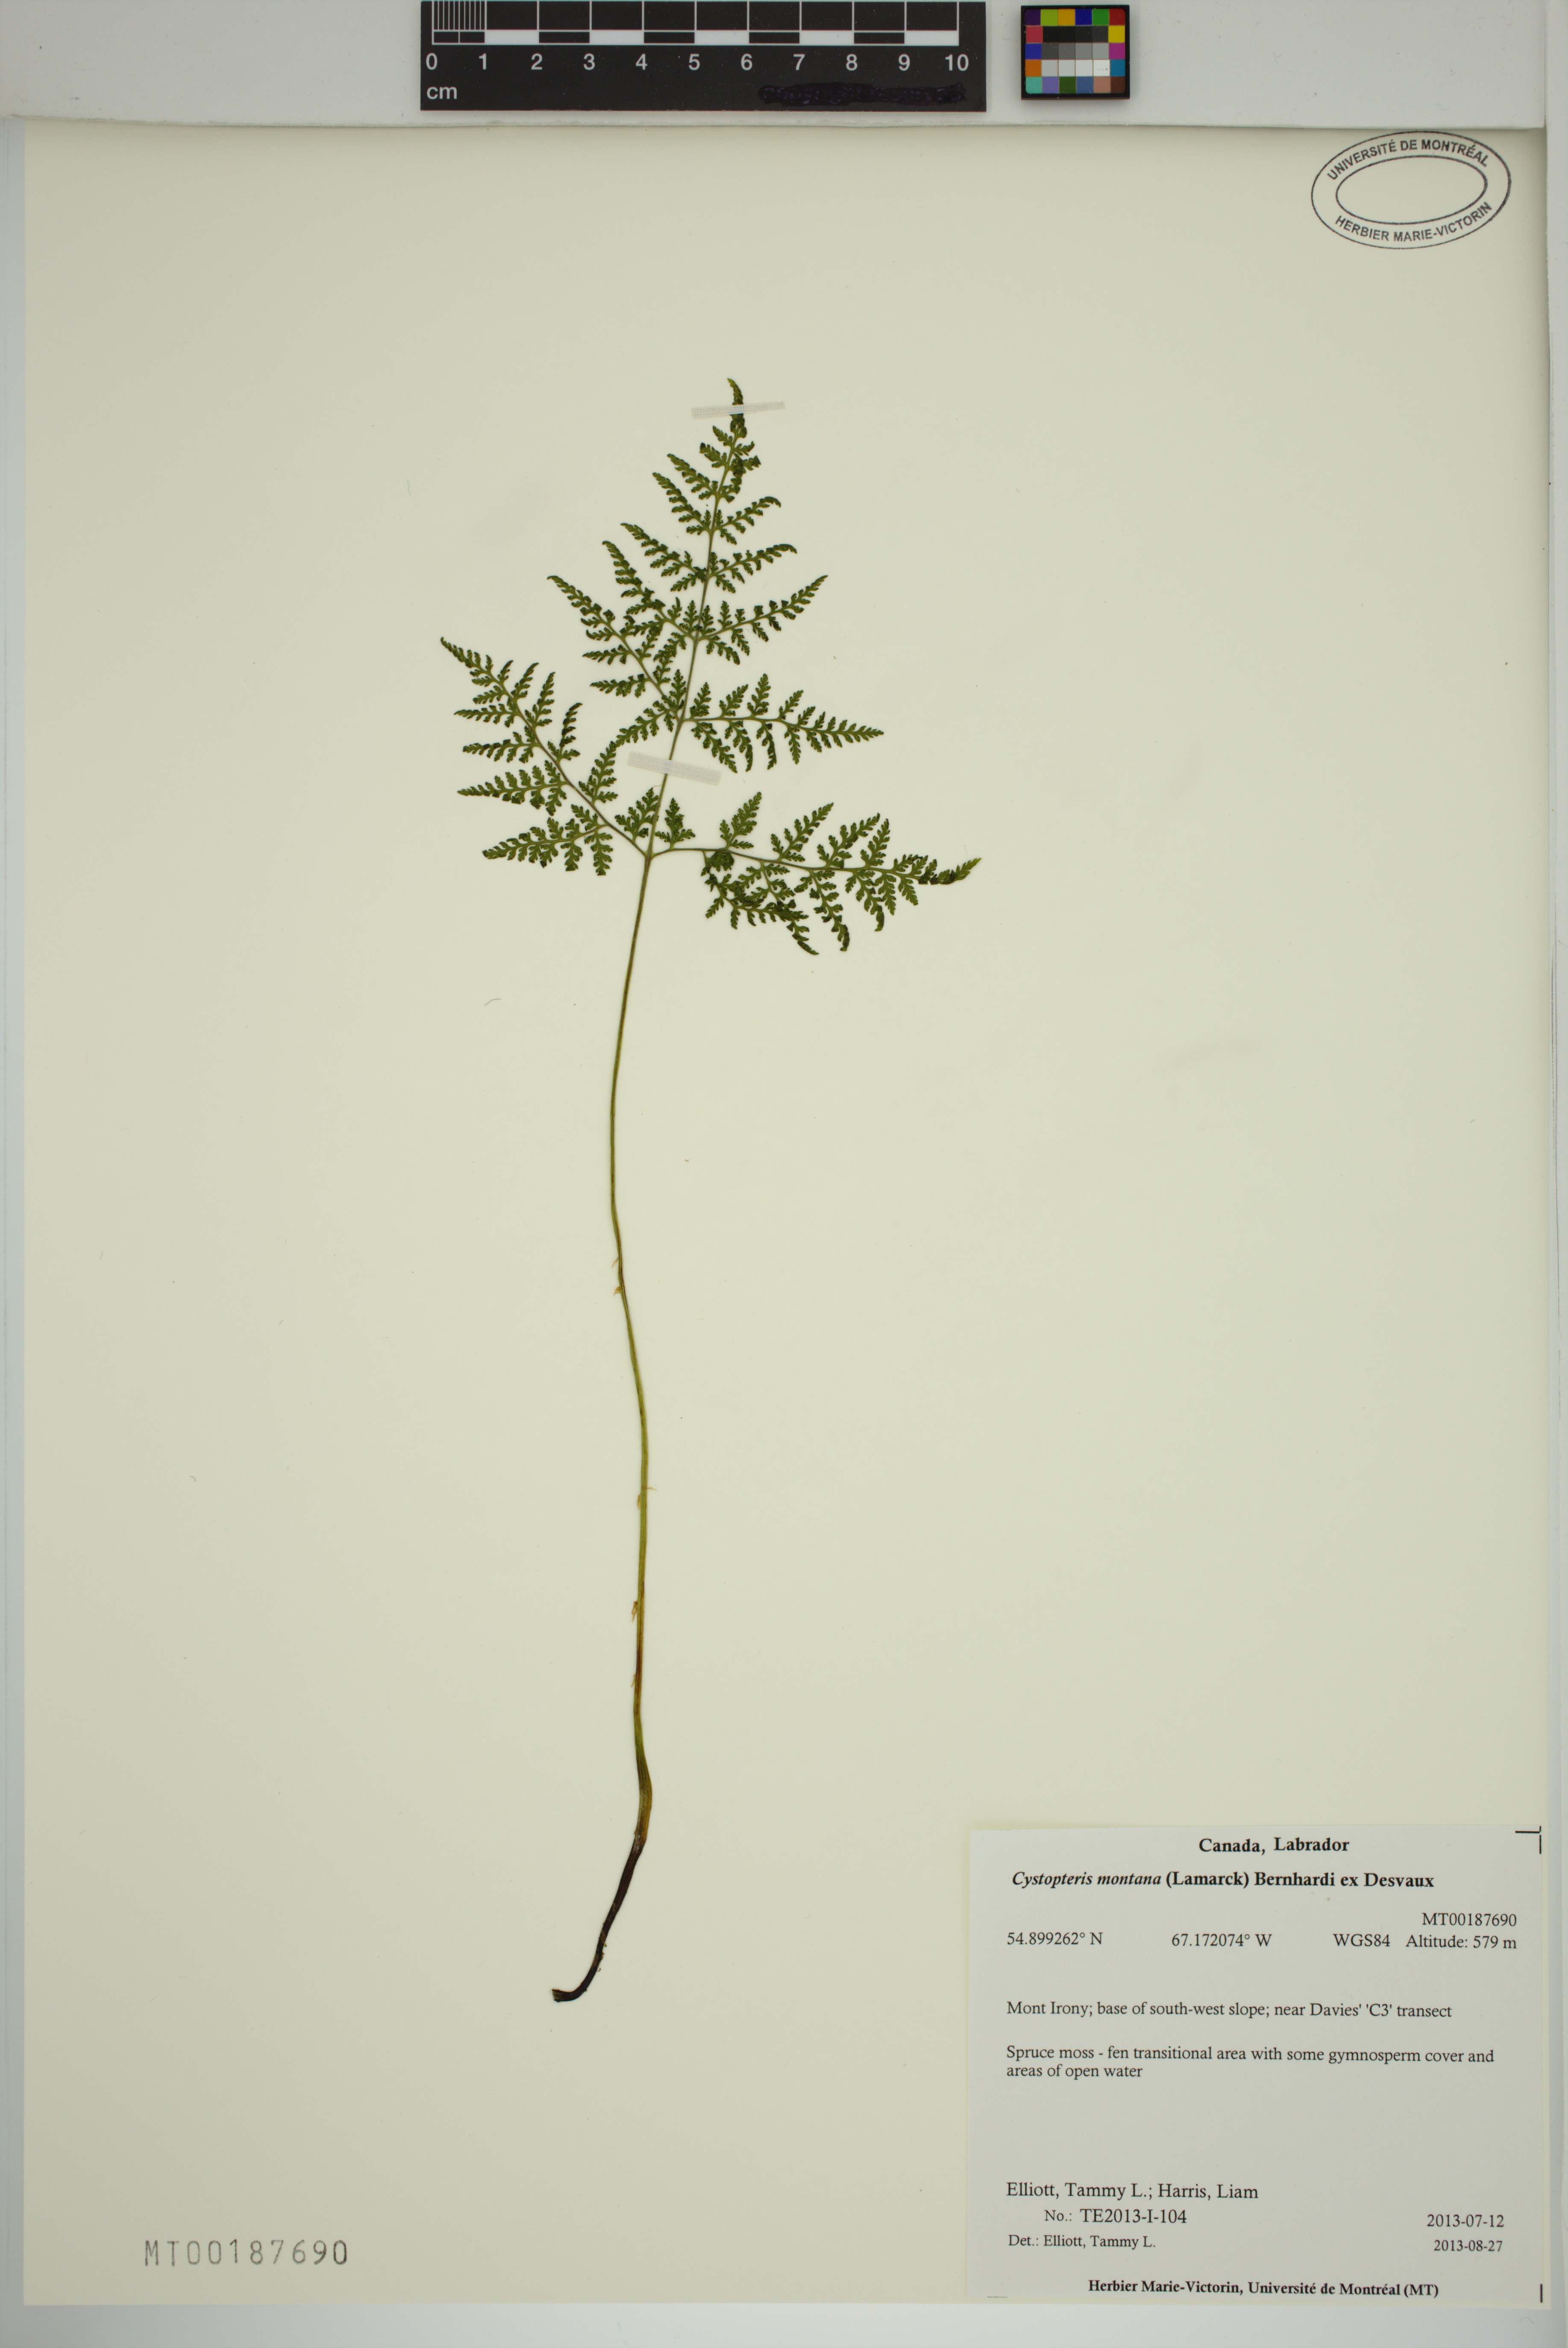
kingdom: Plantae
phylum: Tracheophyta
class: Polypodiopsida
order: Polypodiales
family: Cystopteridaceae
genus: Cystopteris
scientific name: Cystopteris montana
